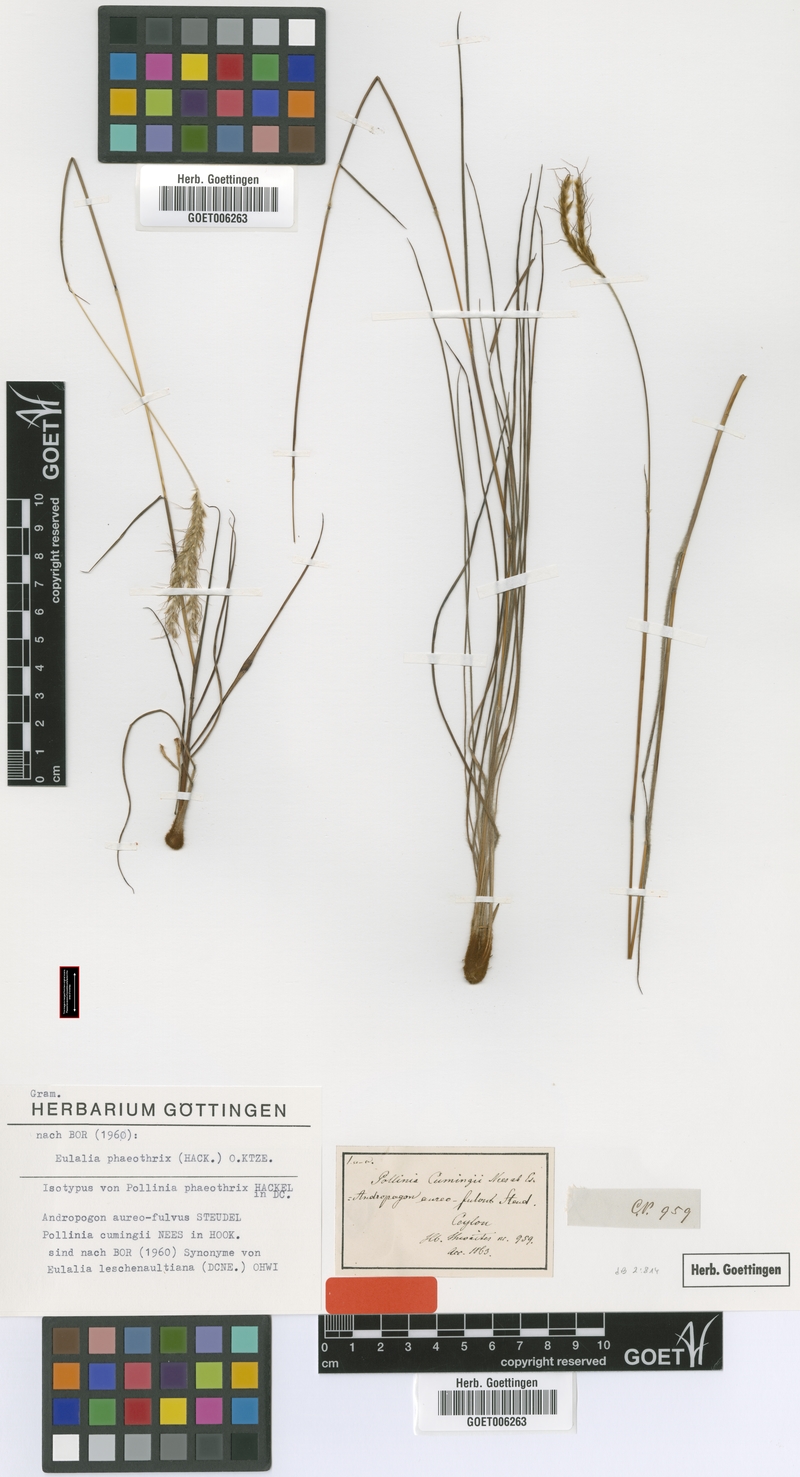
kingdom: Plantae
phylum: Tracheophyta
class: Liliopsida
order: Poales
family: Poaceae
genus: Eulalia
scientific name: Eulalia phaeothrix
